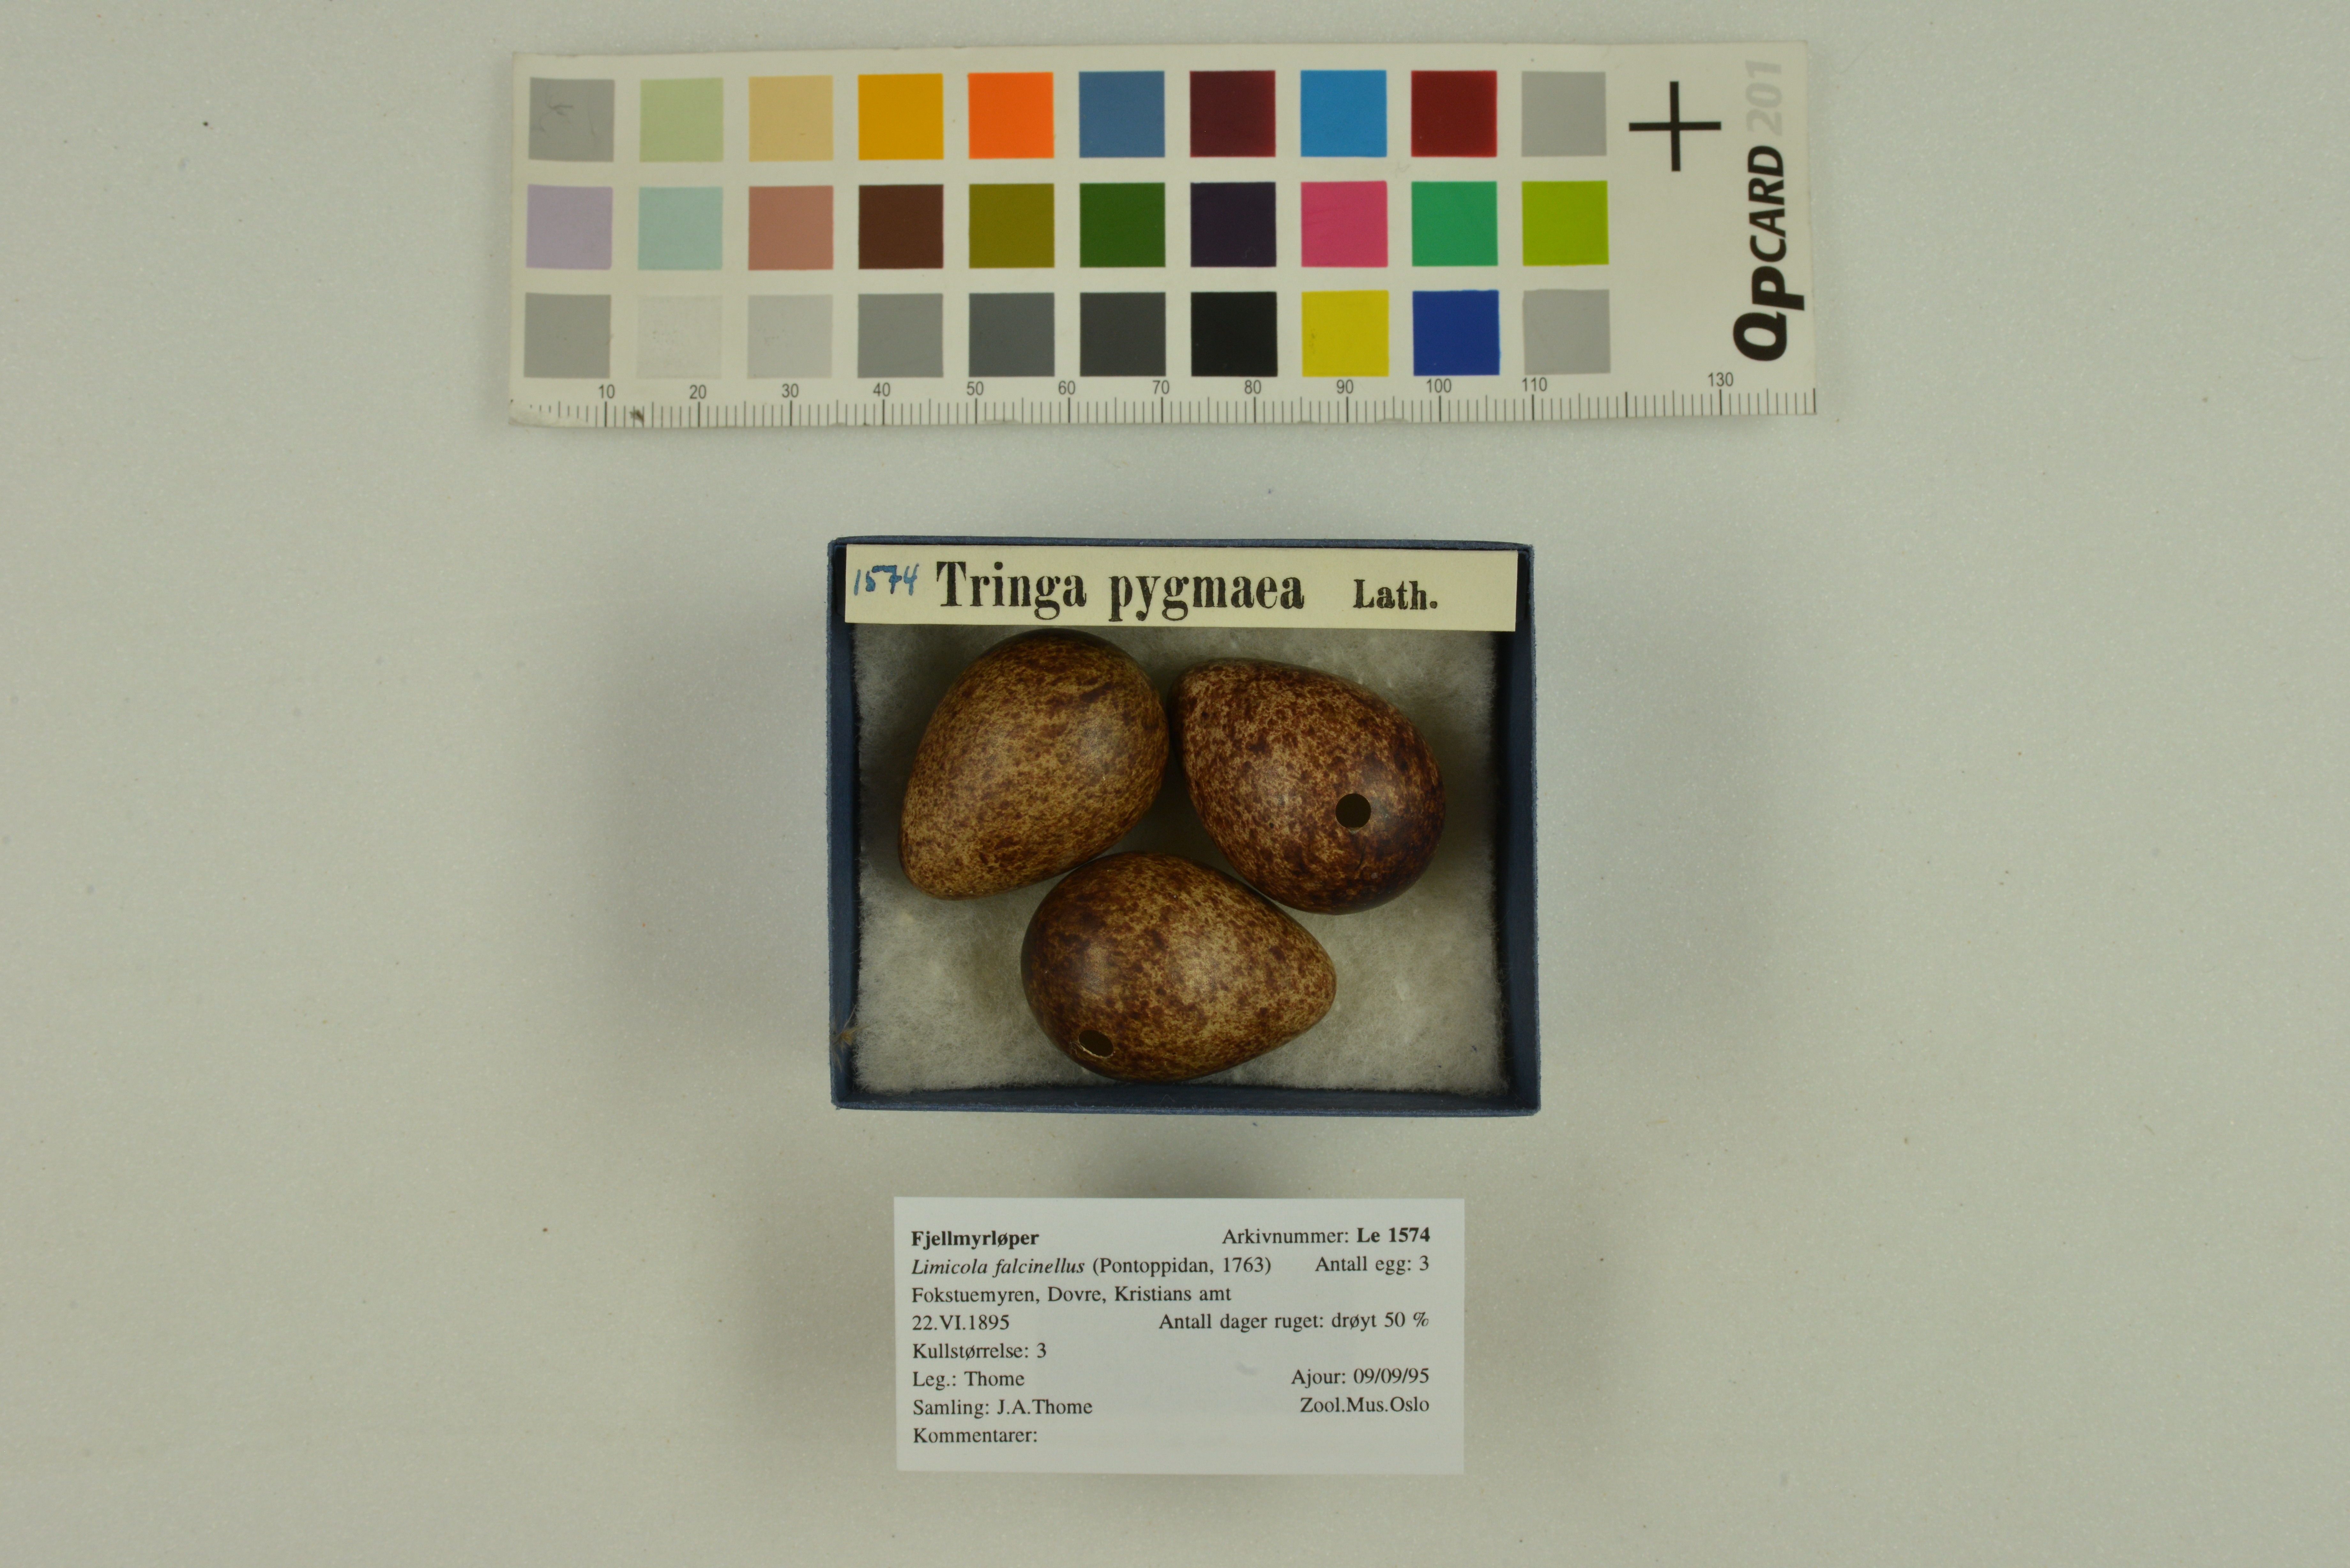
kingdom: Animalia
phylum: Chordata
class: Aves
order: Charadriiformes
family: Scolopacidae
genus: Calidris
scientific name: Calidris falcinellus
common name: Broad-billed sandpiper
